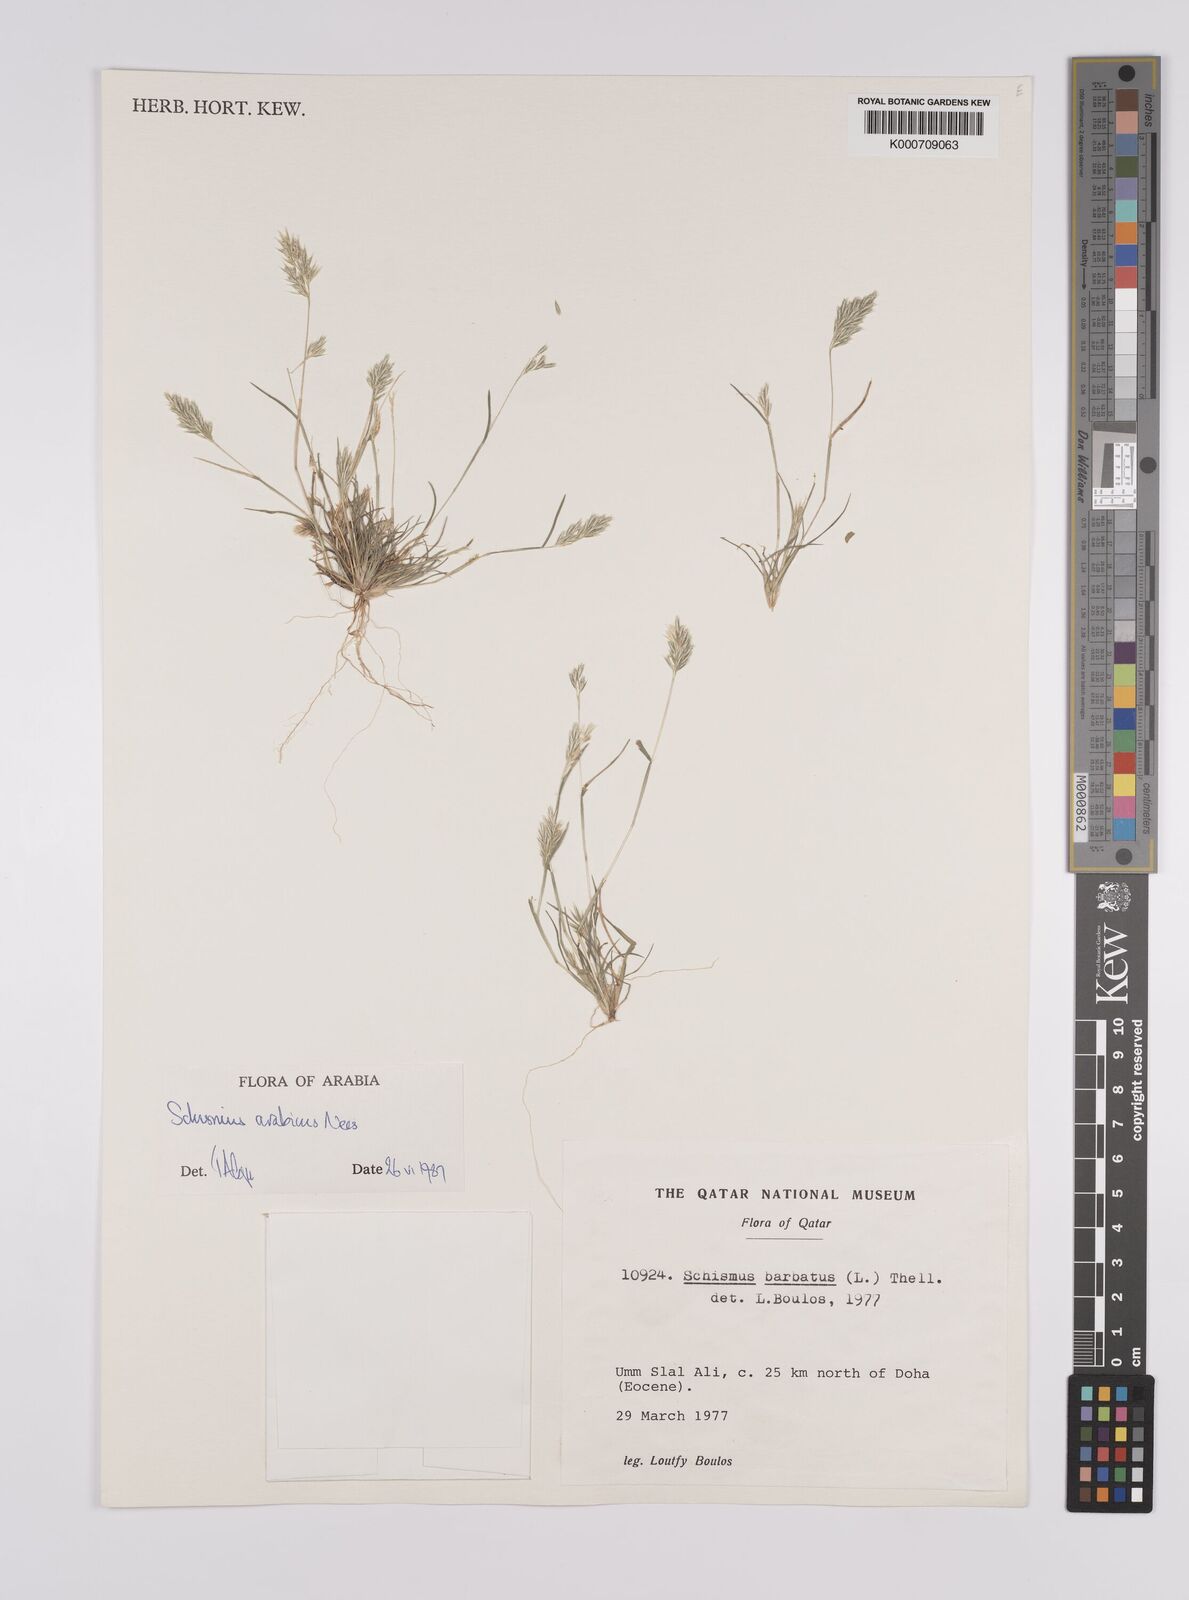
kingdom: Plantae
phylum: Tracheophyta
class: Liliopsida
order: Poales
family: Poaceae
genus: Schismus
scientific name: Schismus arabicus
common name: Arabian schismus
